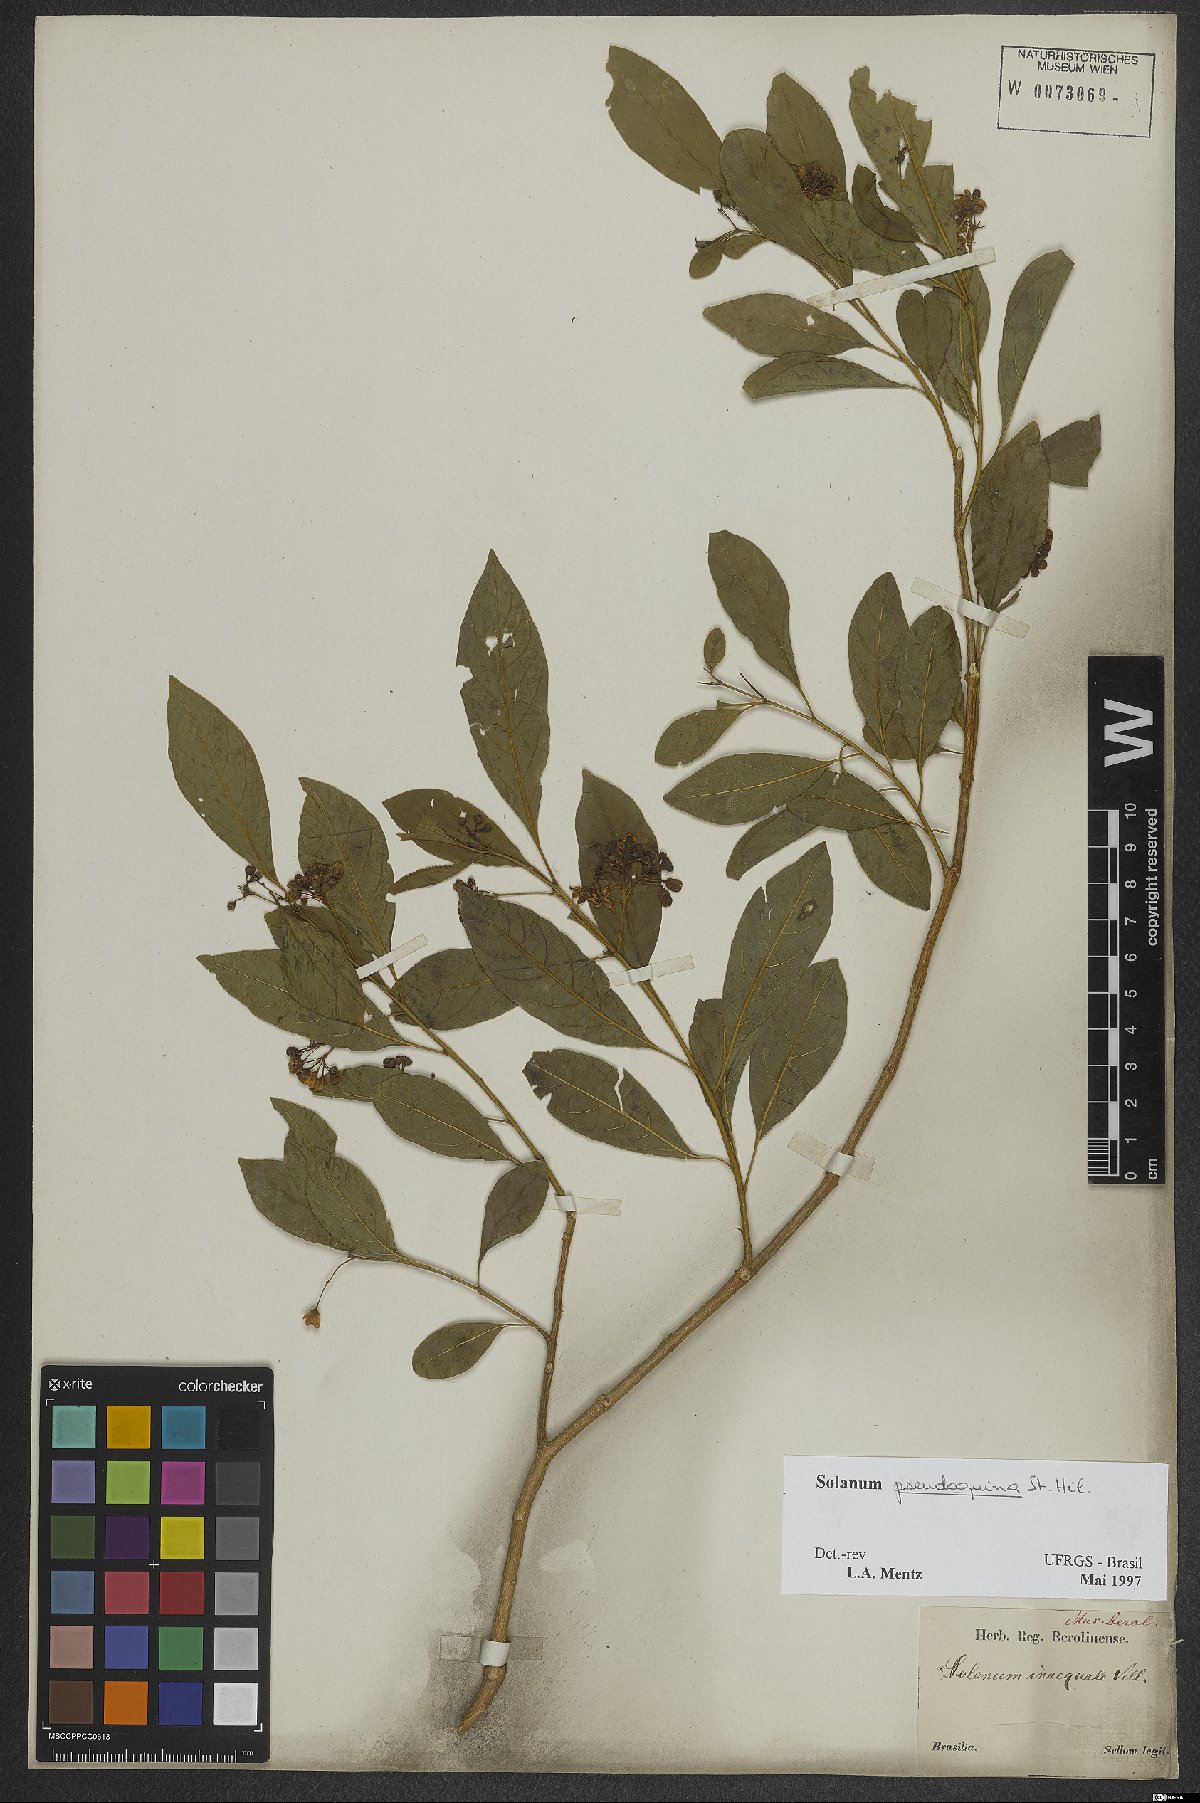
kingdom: Plantae
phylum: Tracheophyta
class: Magnoliopsida
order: Solanales
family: Solanaceae
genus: Solanum
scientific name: Solanum pseudoquina
